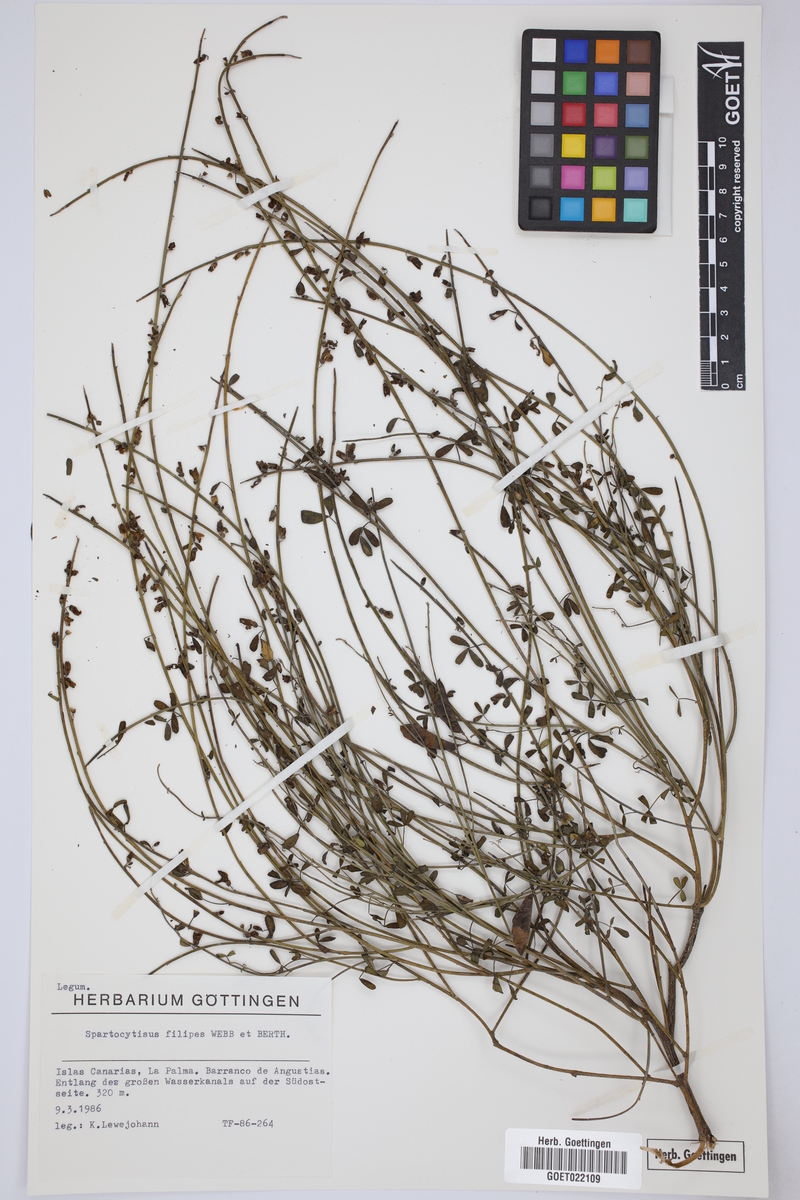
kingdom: Plantae
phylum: Tracheophyta
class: Magnoliopsida
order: Fabales
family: Fabaceae
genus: Cytisus
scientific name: Cytisus filipes
